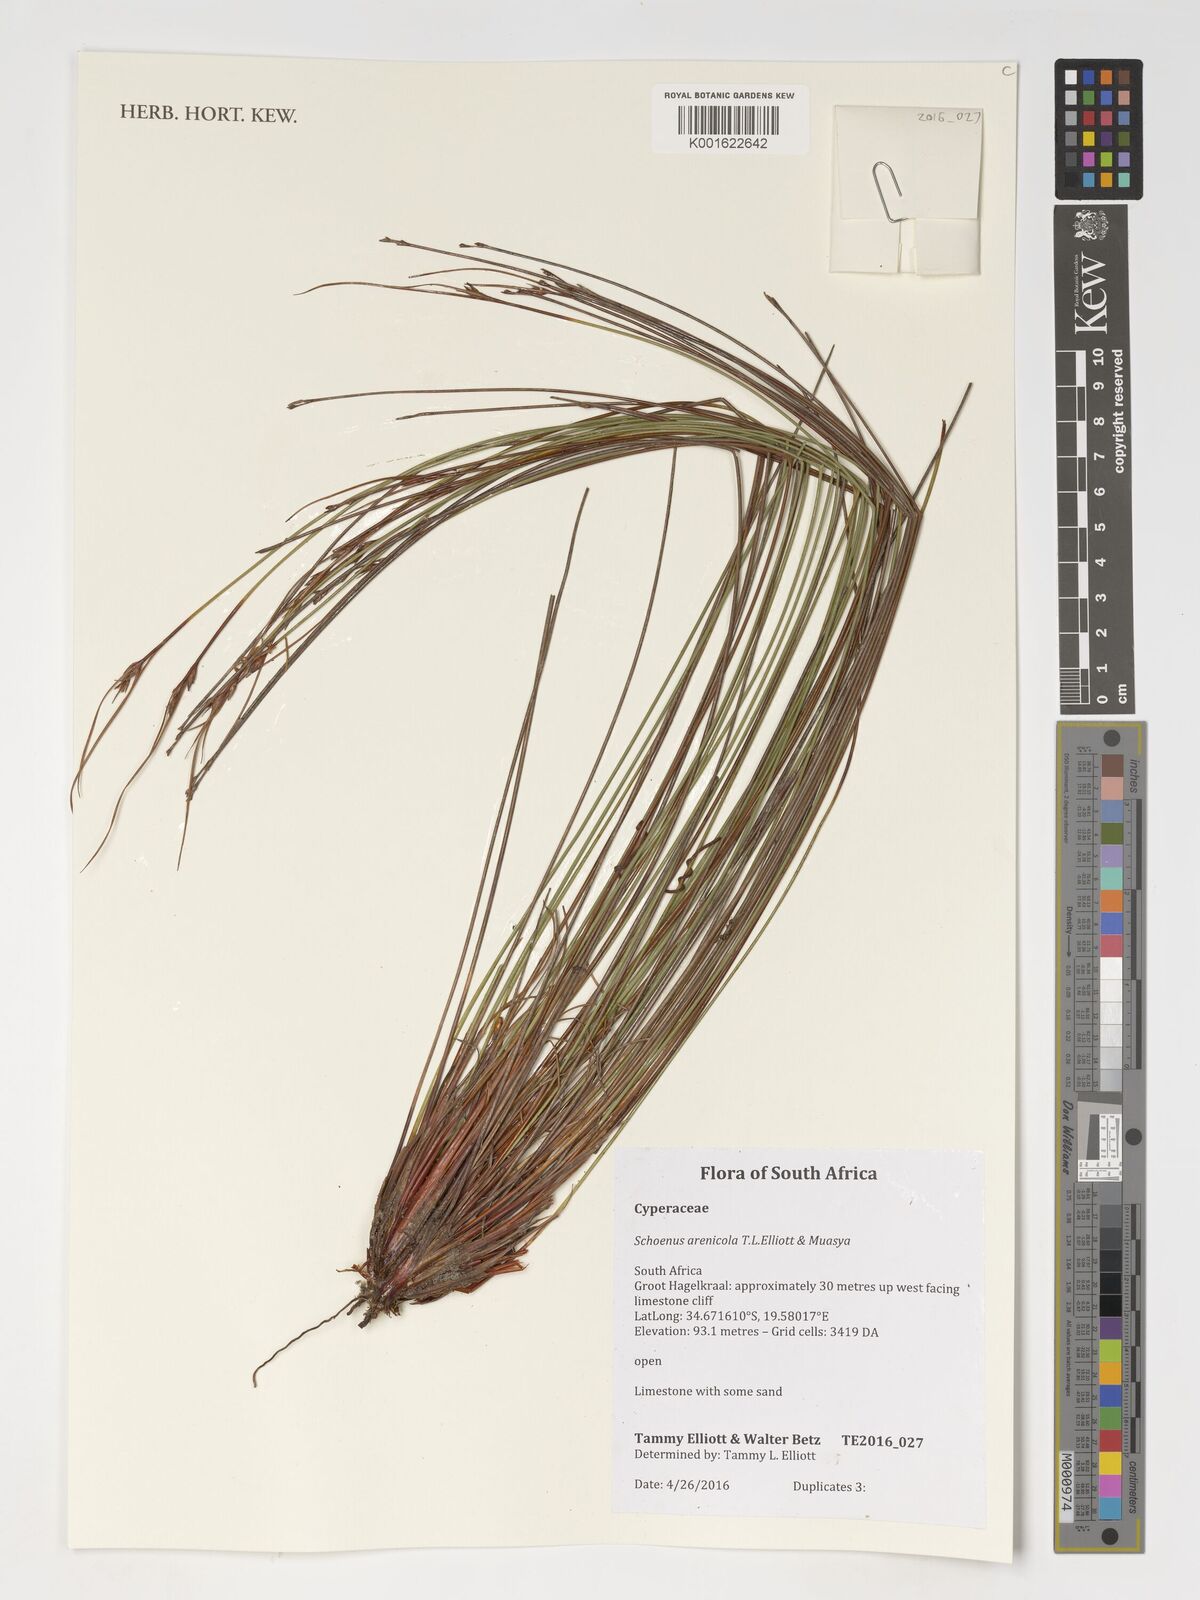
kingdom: Plantae
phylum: Tracheophyta
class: Liliopsida
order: Poales
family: Cyperaceae
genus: Schoenus
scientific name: Schoenus arenicola
